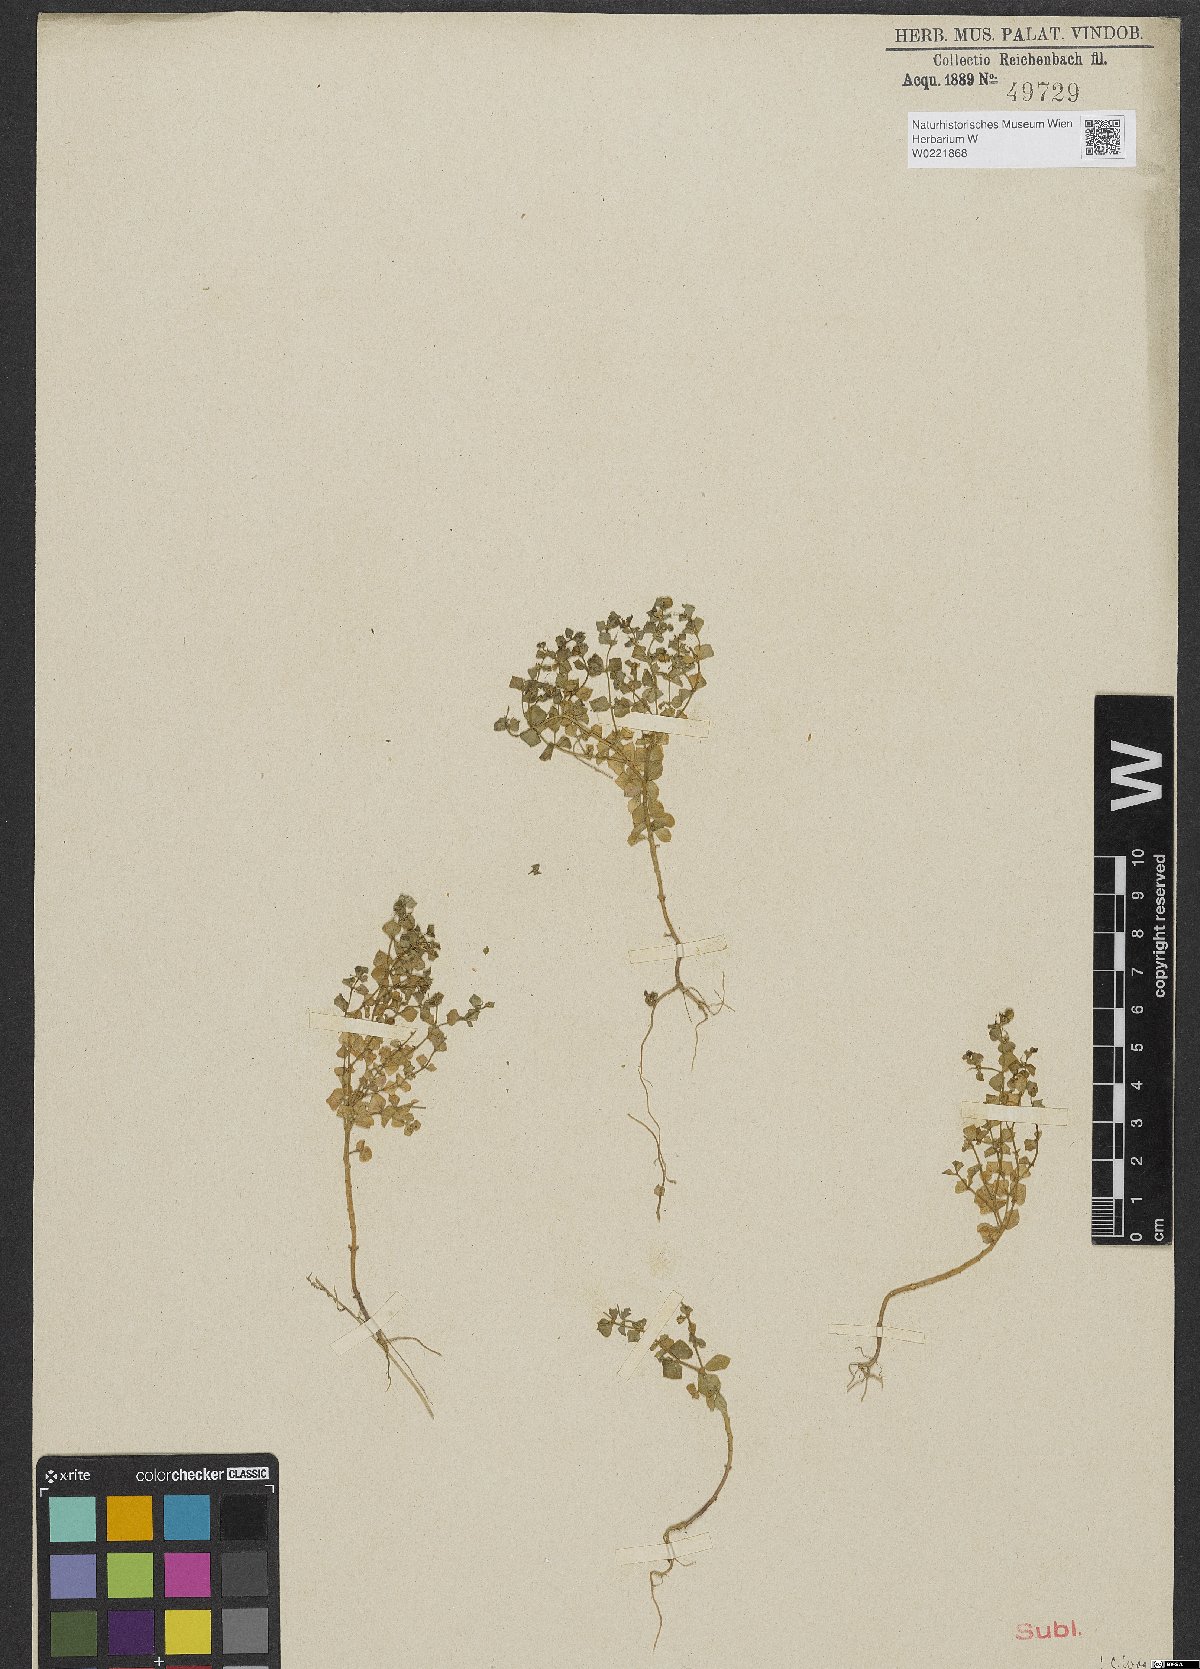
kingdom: Plantae
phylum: Tracheophyta
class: Magnoliopsida
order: Malpighiales
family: Euphorbiaceae
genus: Euphorbia
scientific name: Euphorbia aulacosperma
